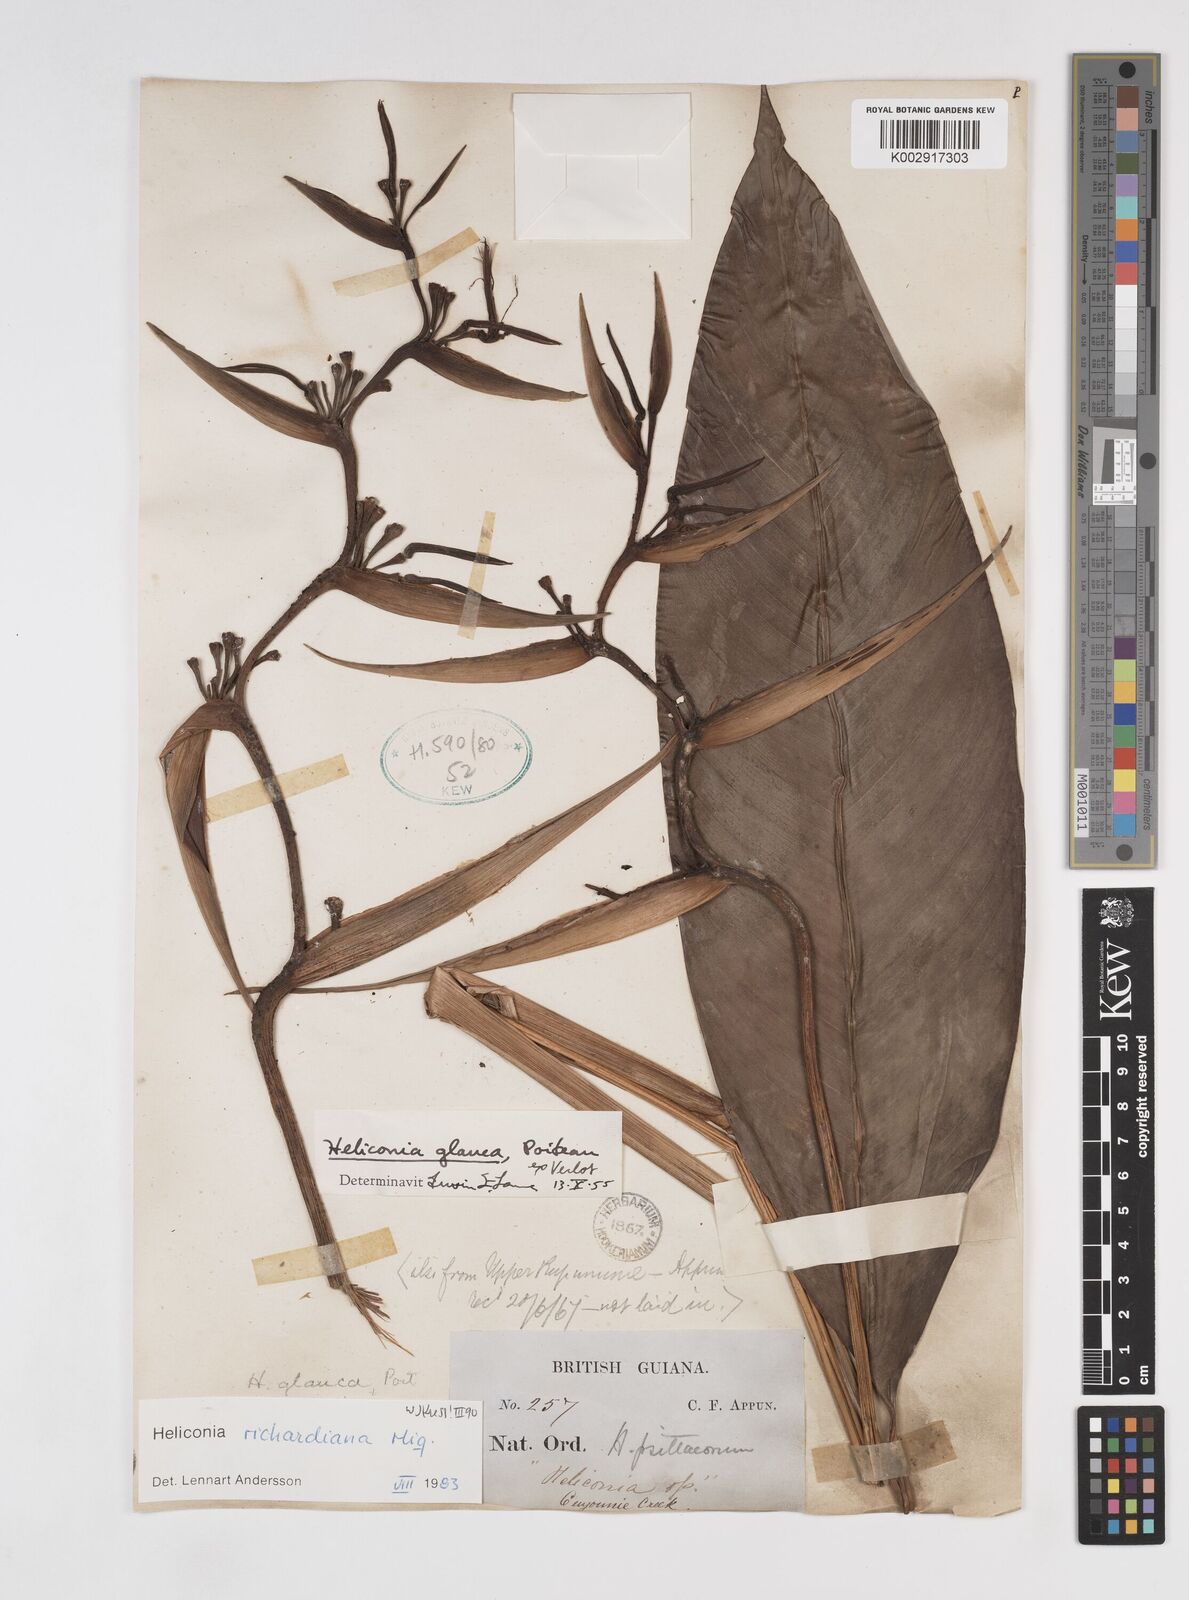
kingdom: Plantae
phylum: Tracheophyta
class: Liliopsida
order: Zingiberales
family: Heliconiaceae
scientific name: Heliconiaceae
